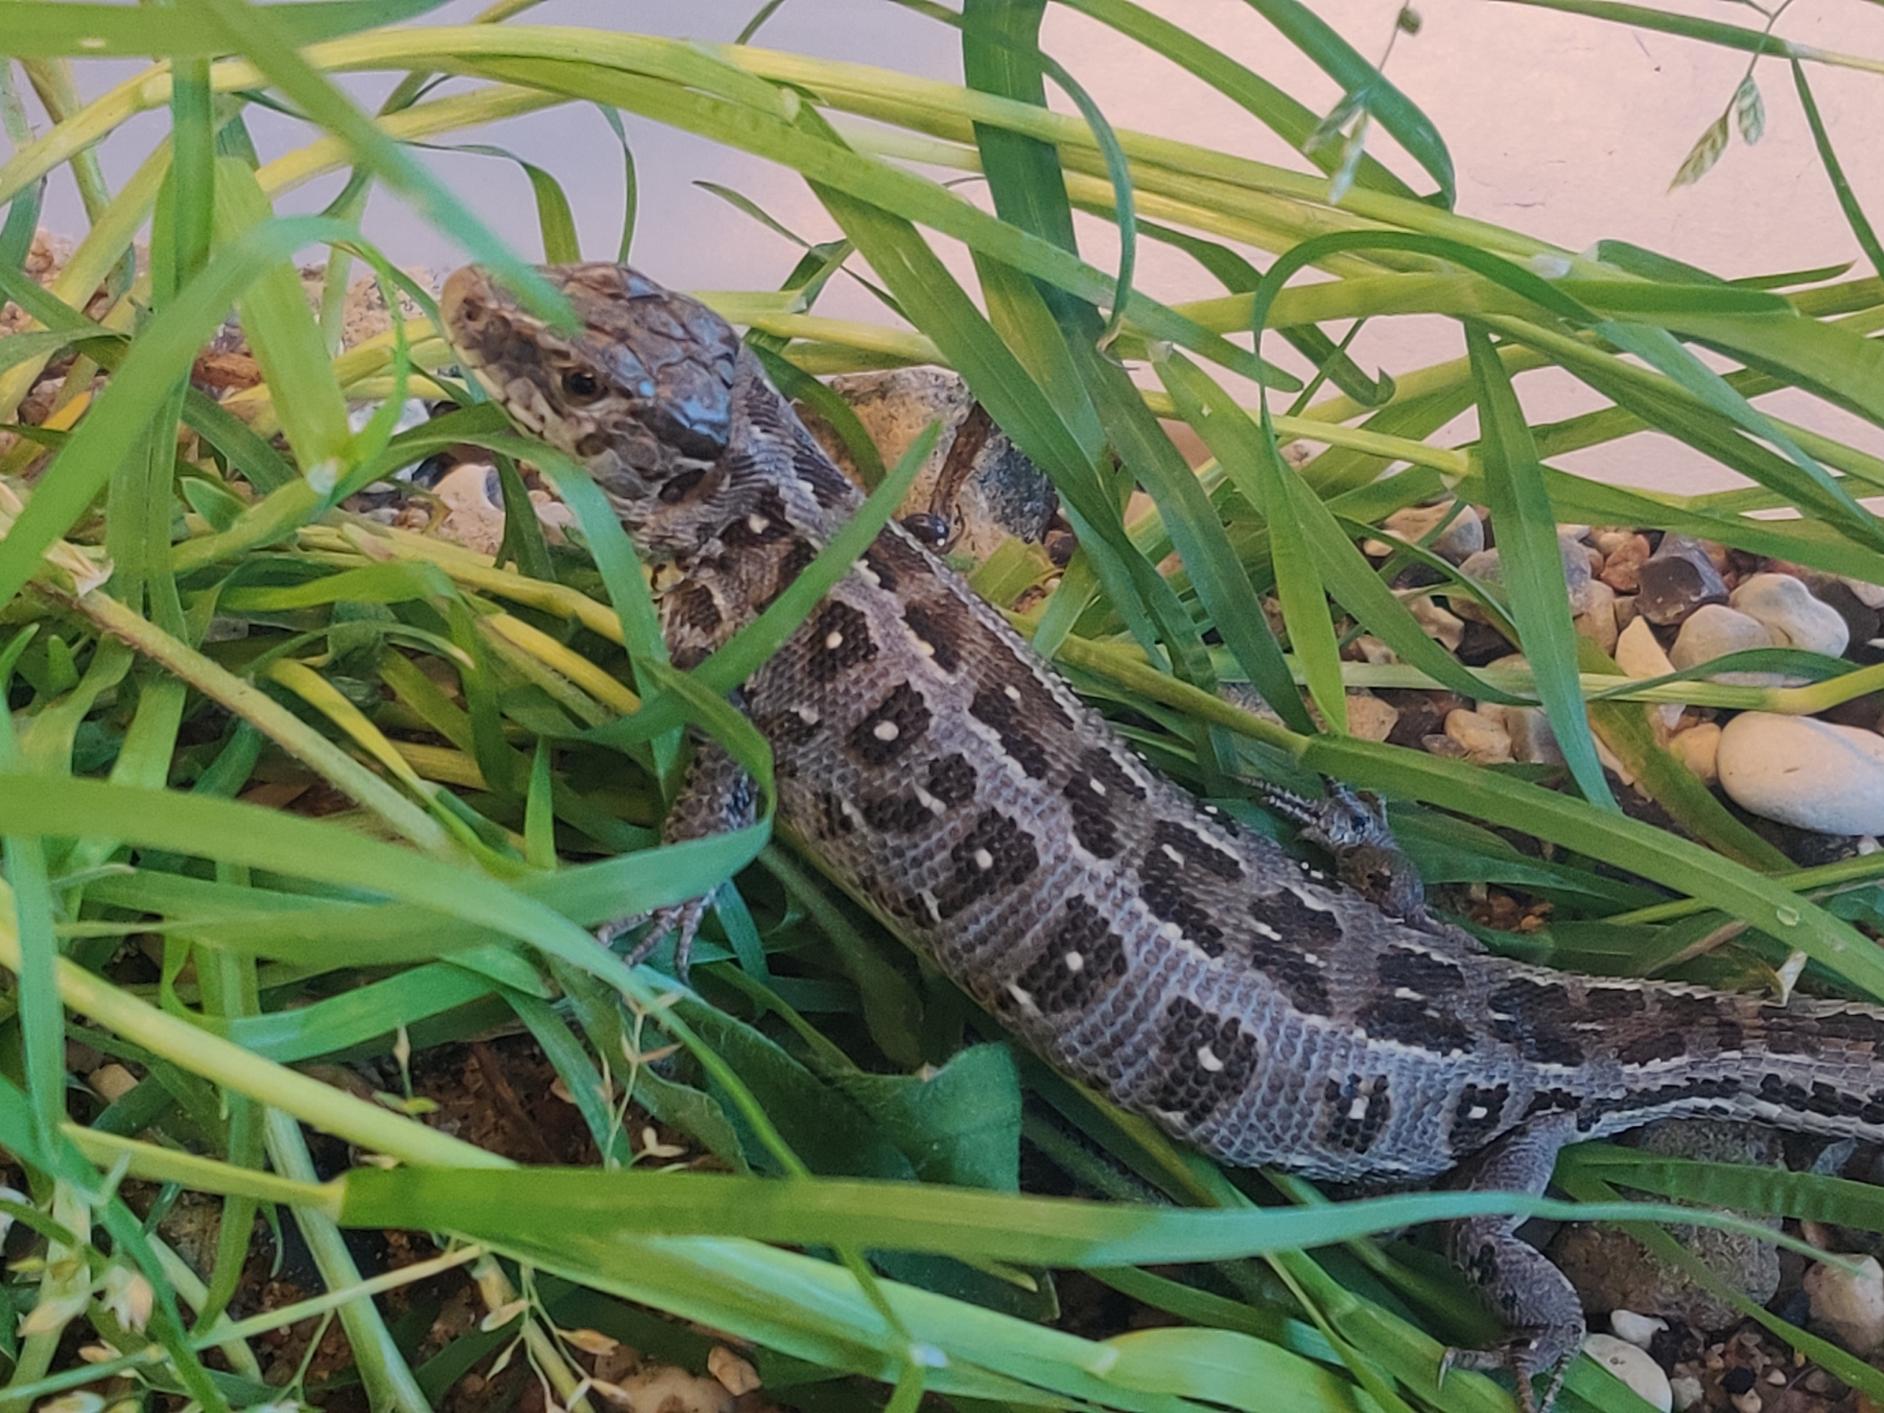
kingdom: Animalia
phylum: Chordata
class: Squamata
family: Lacertidae
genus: Lacerta
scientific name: Lacerta agilis
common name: Markfirben
